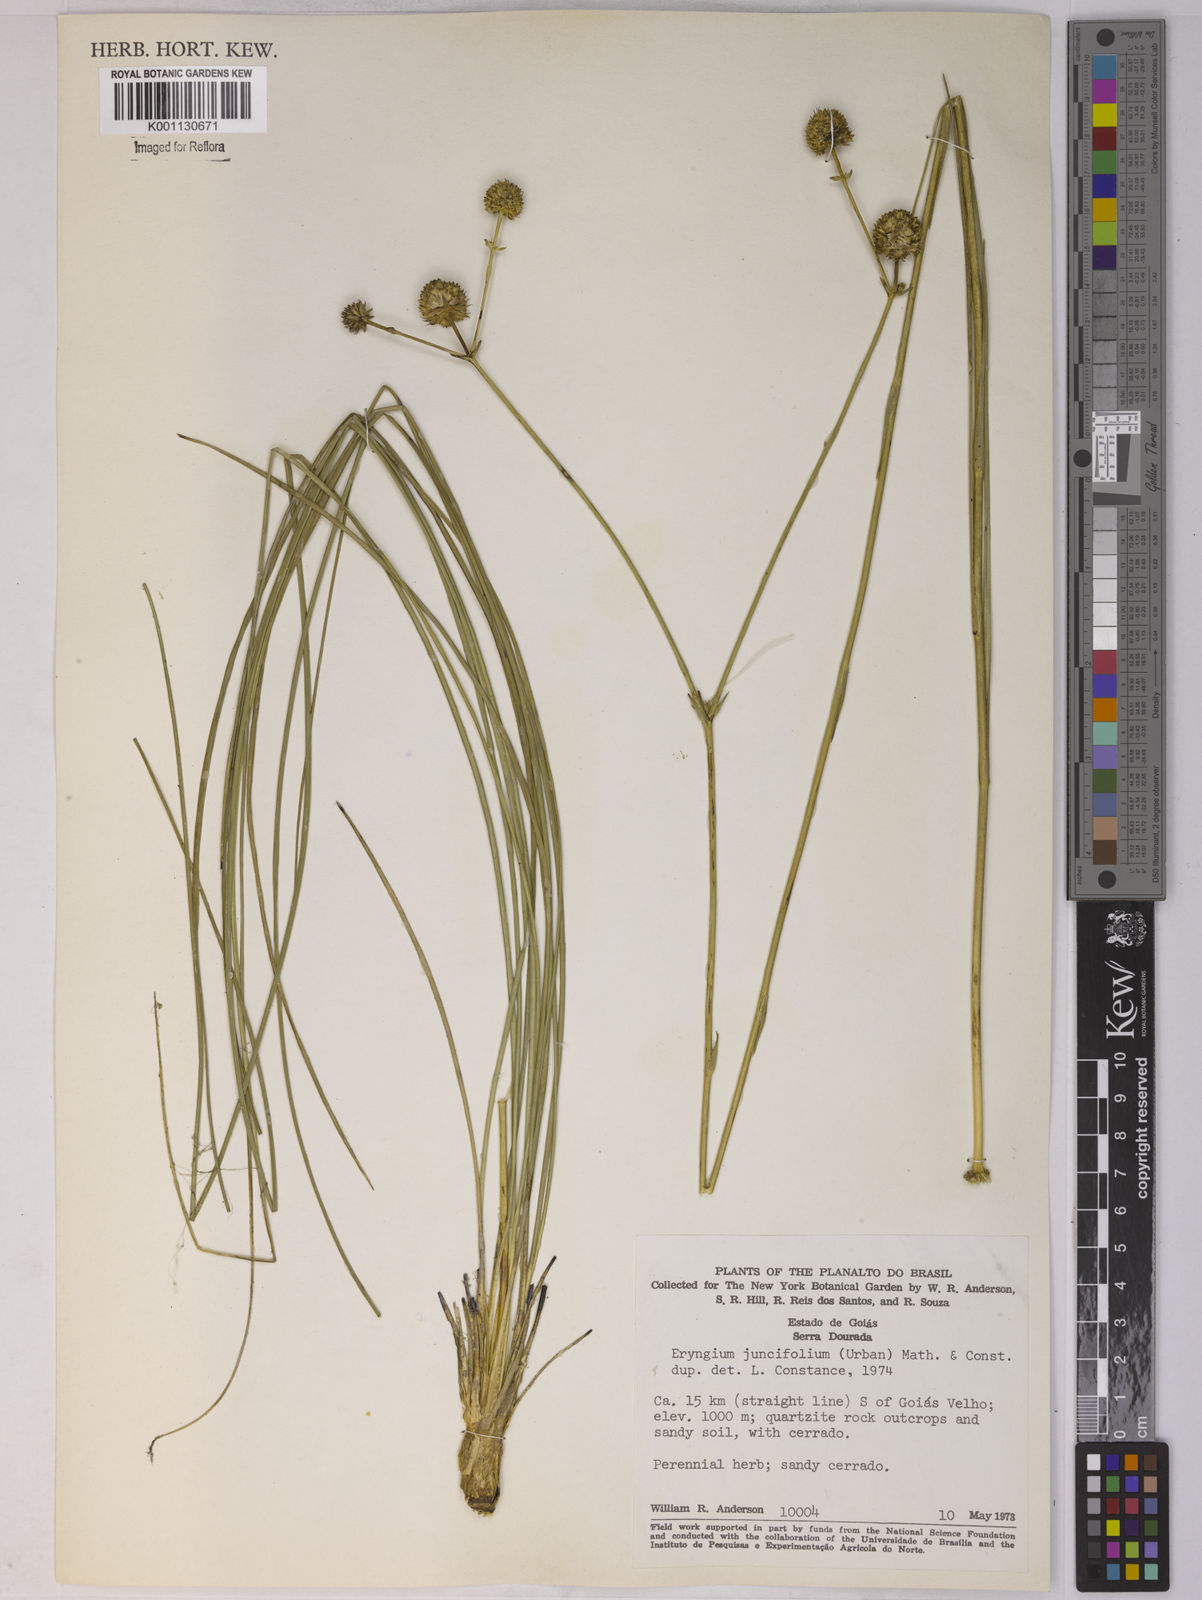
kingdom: Plantae
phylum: Tracheophyta
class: Magnoliopsida
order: Apiales
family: Apiaceae
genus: Eryngium
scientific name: Eryngium juncifolium
